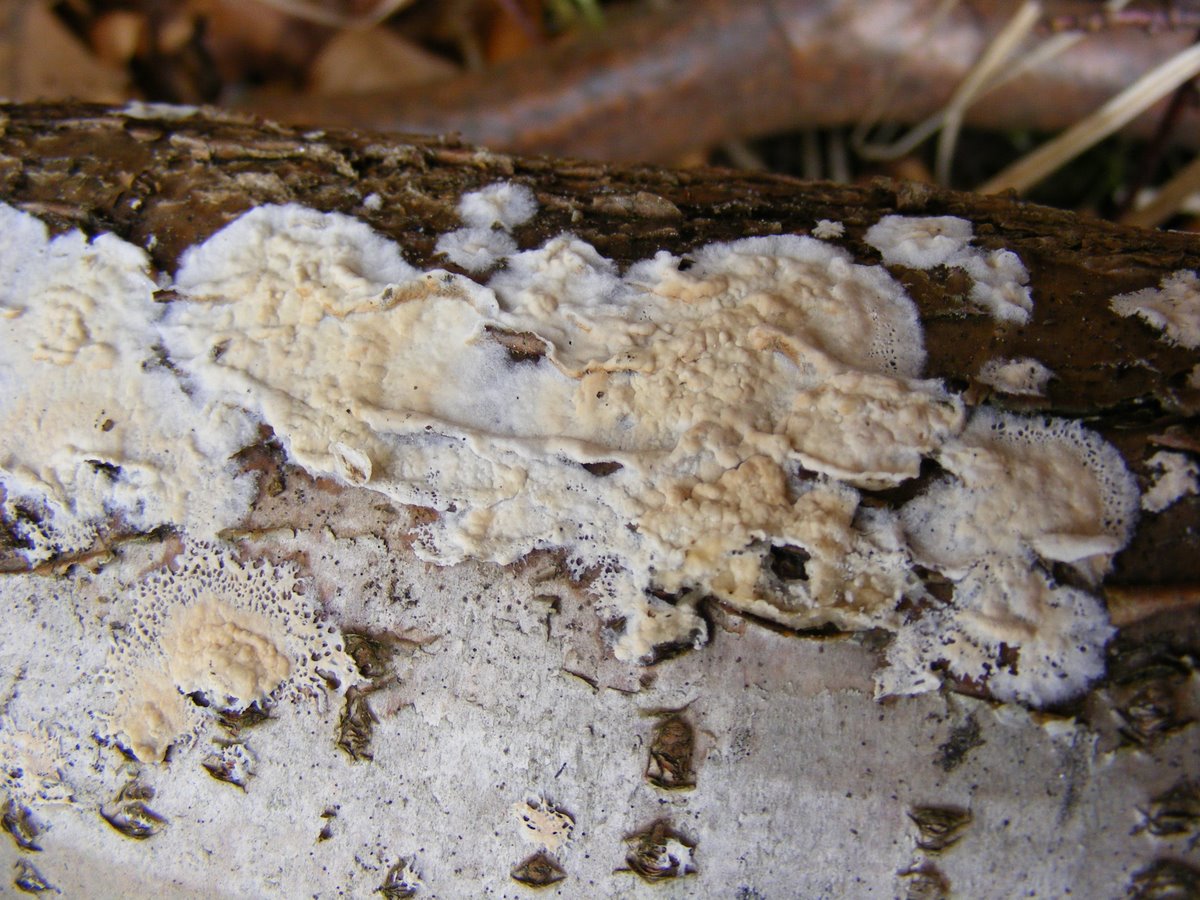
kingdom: Fungi
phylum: Basidiomycota
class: Agaricomycetes
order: Polyporales
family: Irpicaceae
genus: Byssomerulius
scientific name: Byssomerulius corium
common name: læder-åresvamp
